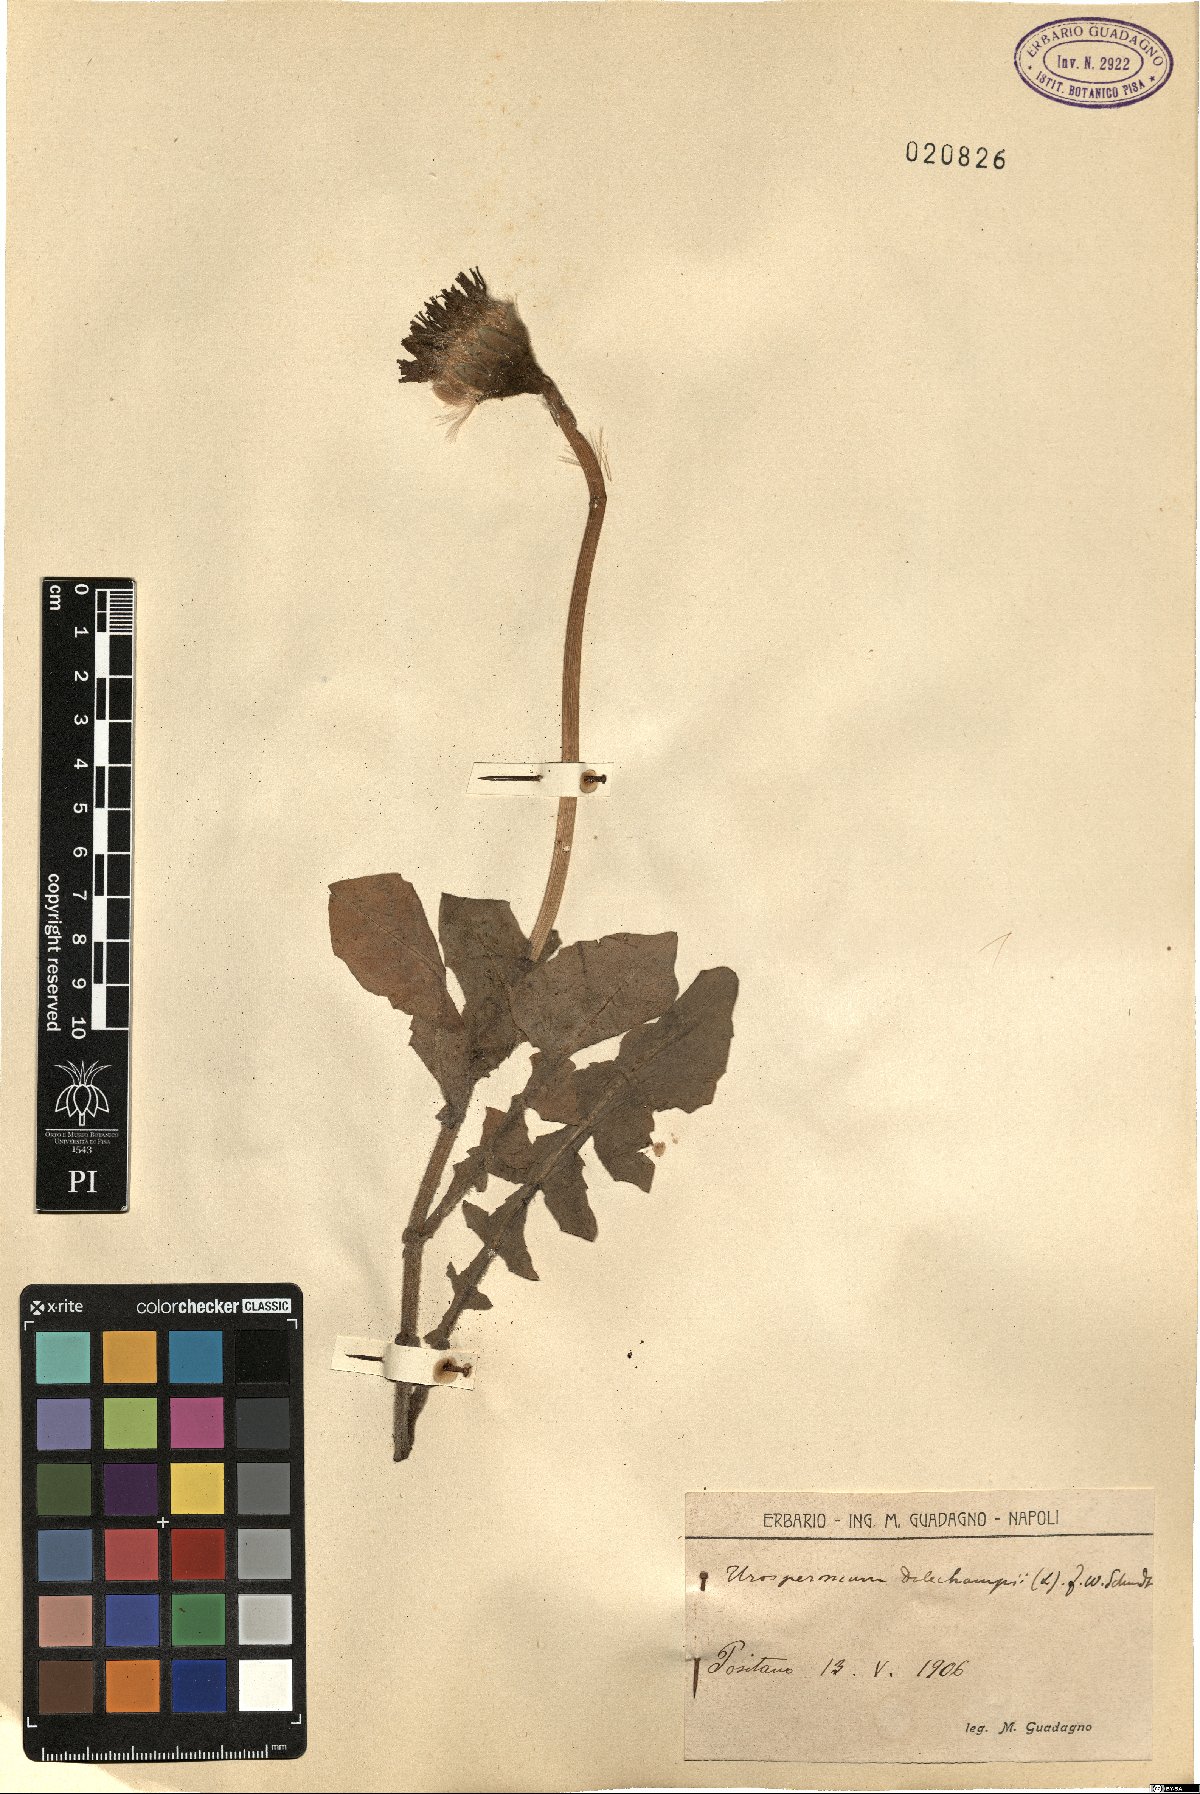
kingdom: Plantae
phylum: Tracheophyta
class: Magnoliopsida
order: Asterales
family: Asteraceae
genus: Urospermum
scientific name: Urospermum dalechampii
